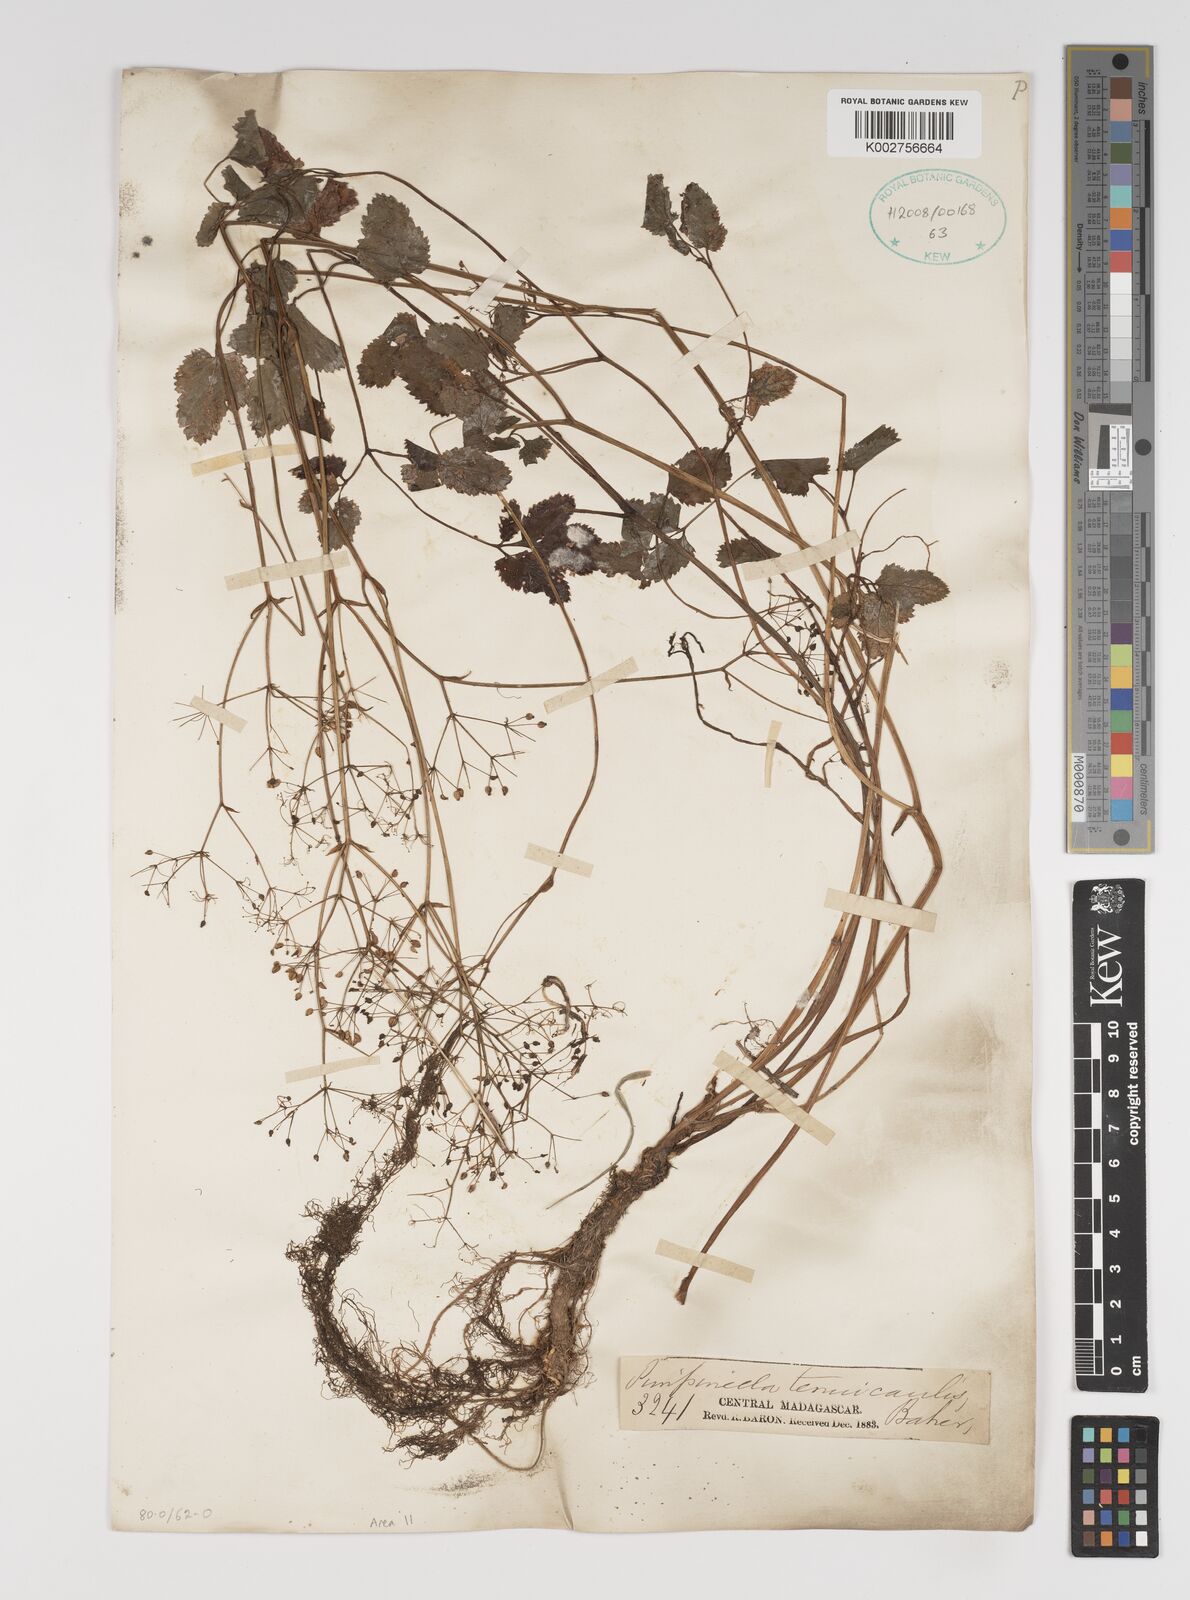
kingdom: Plantae
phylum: Tracheophyta
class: Magnoliopsida
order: Apiales
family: Apiaceae
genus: Pimpinella
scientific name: Pimpinella tenuicaulis
